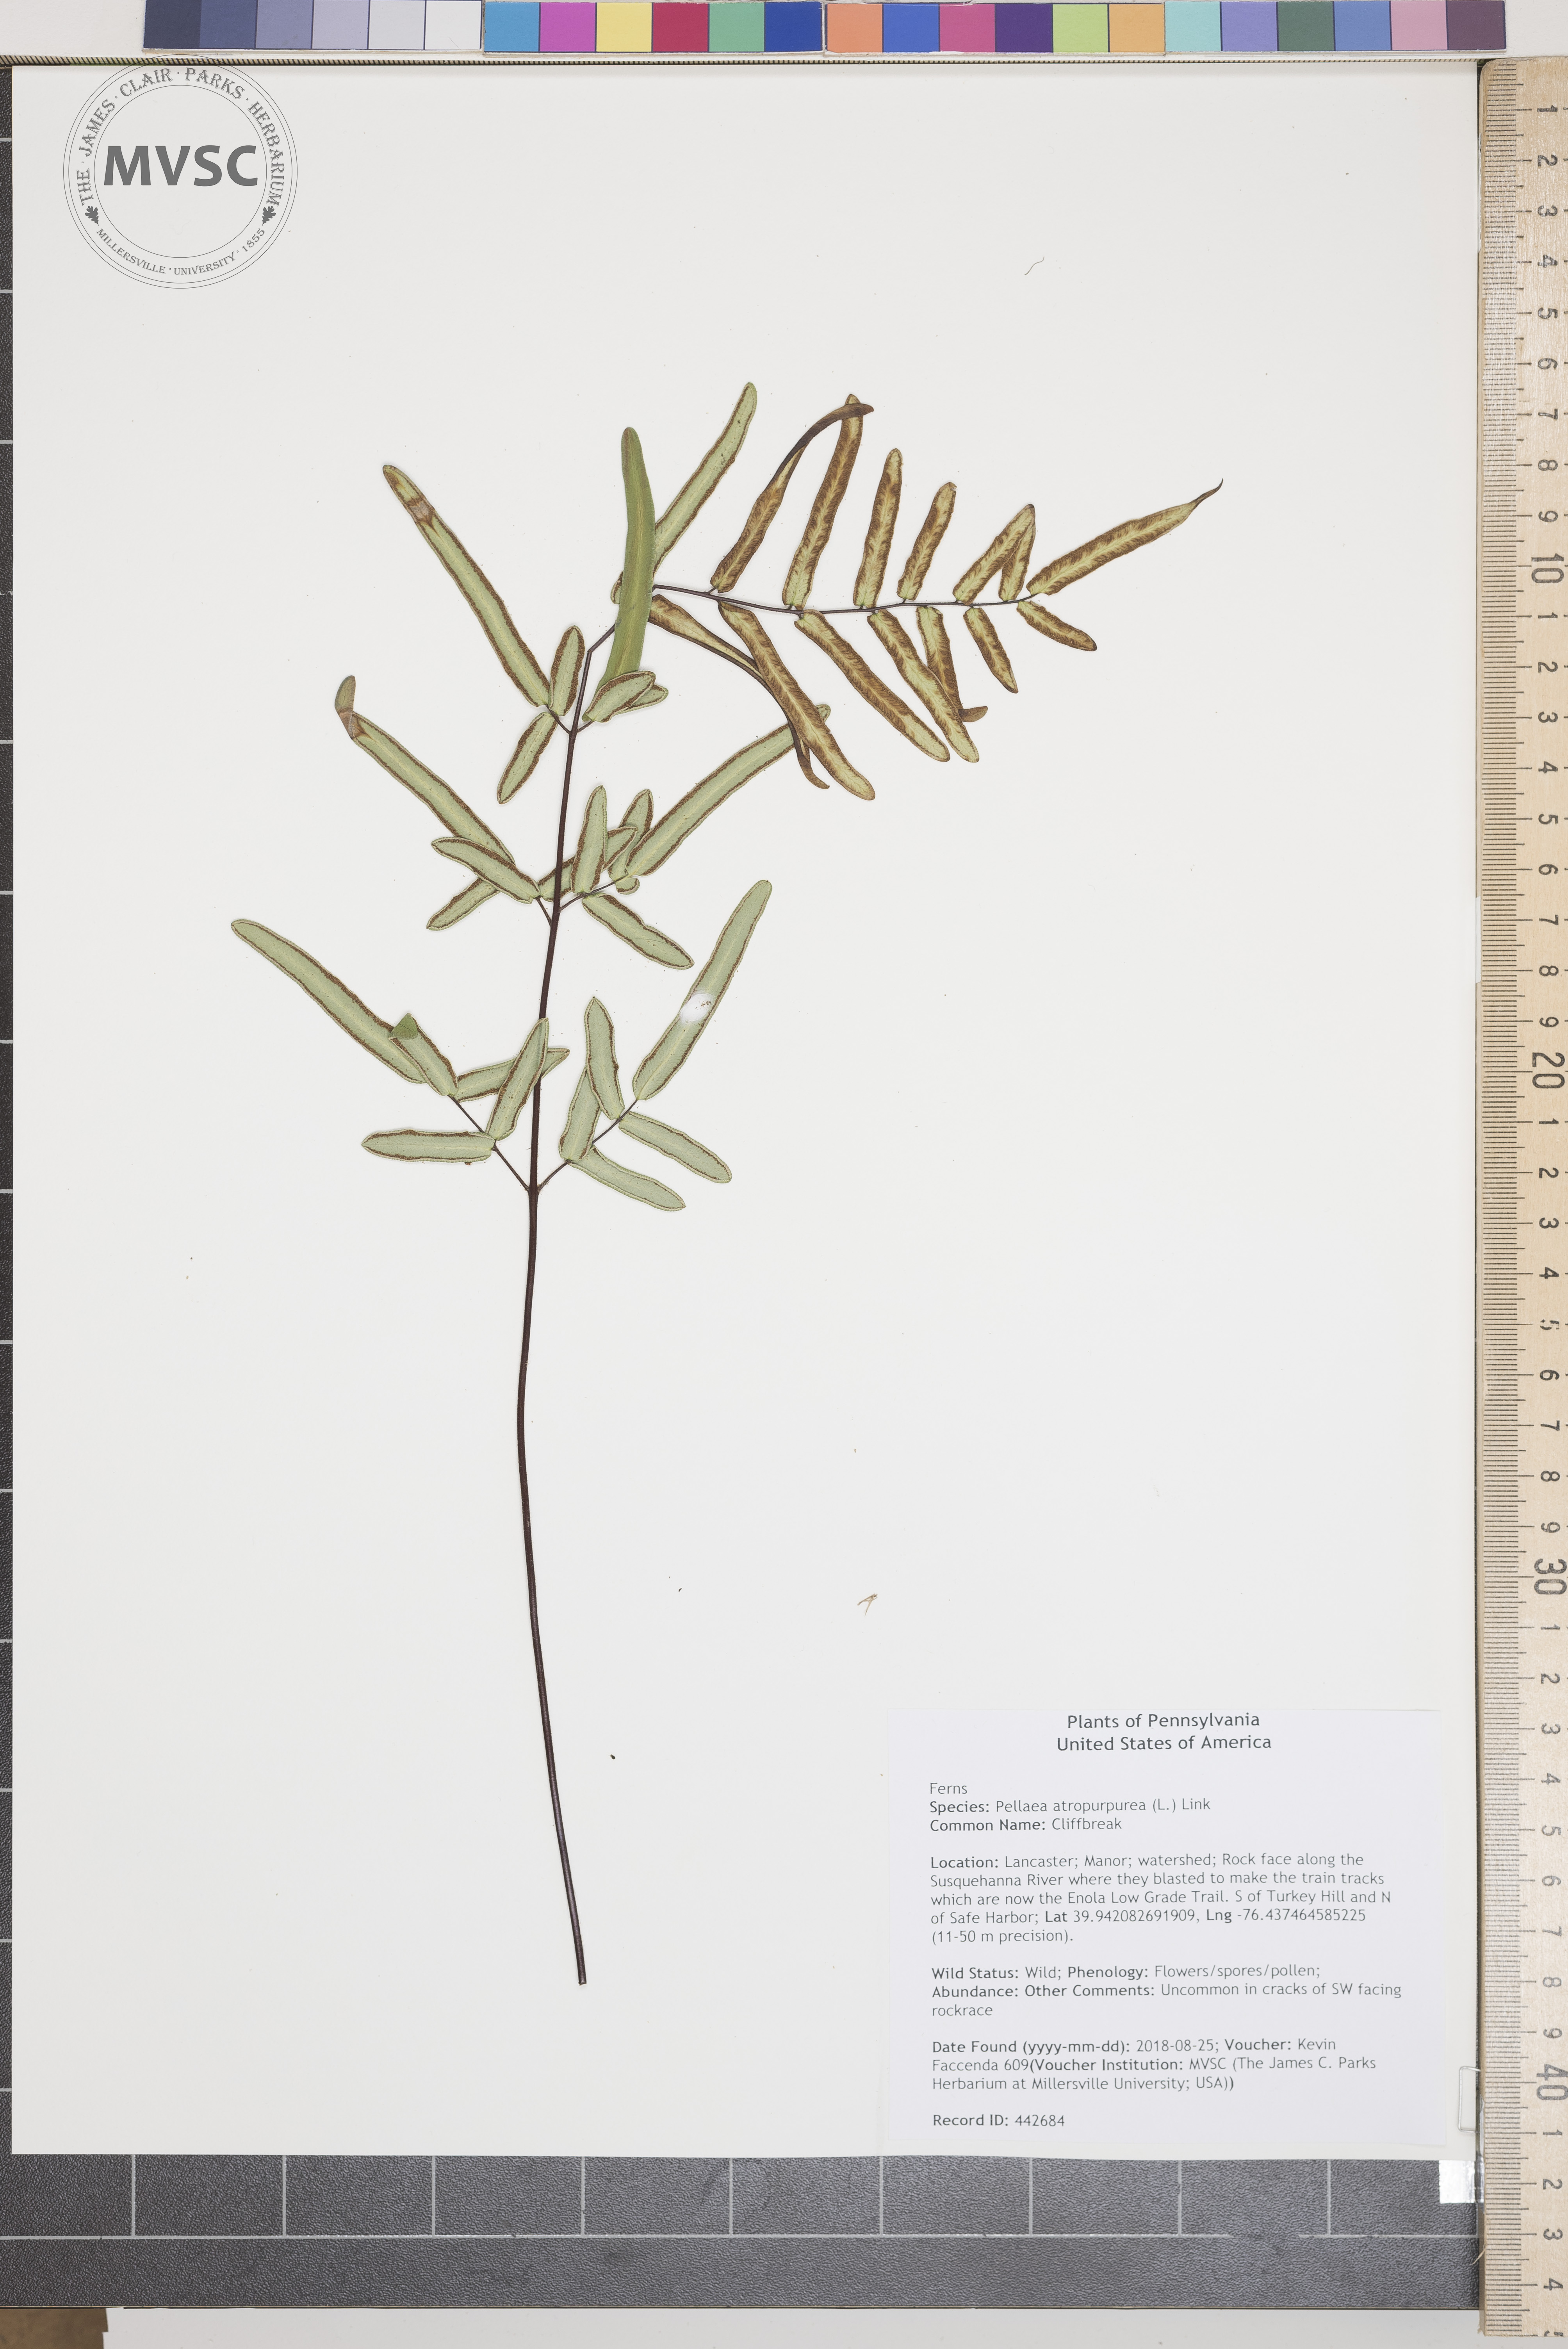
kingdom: Plantae
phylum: Tracheophyta
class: Polypodiopsida
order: Polypodiales
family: Pteridaceae
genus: Pellaea
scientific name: Pellaea atropurpurea
